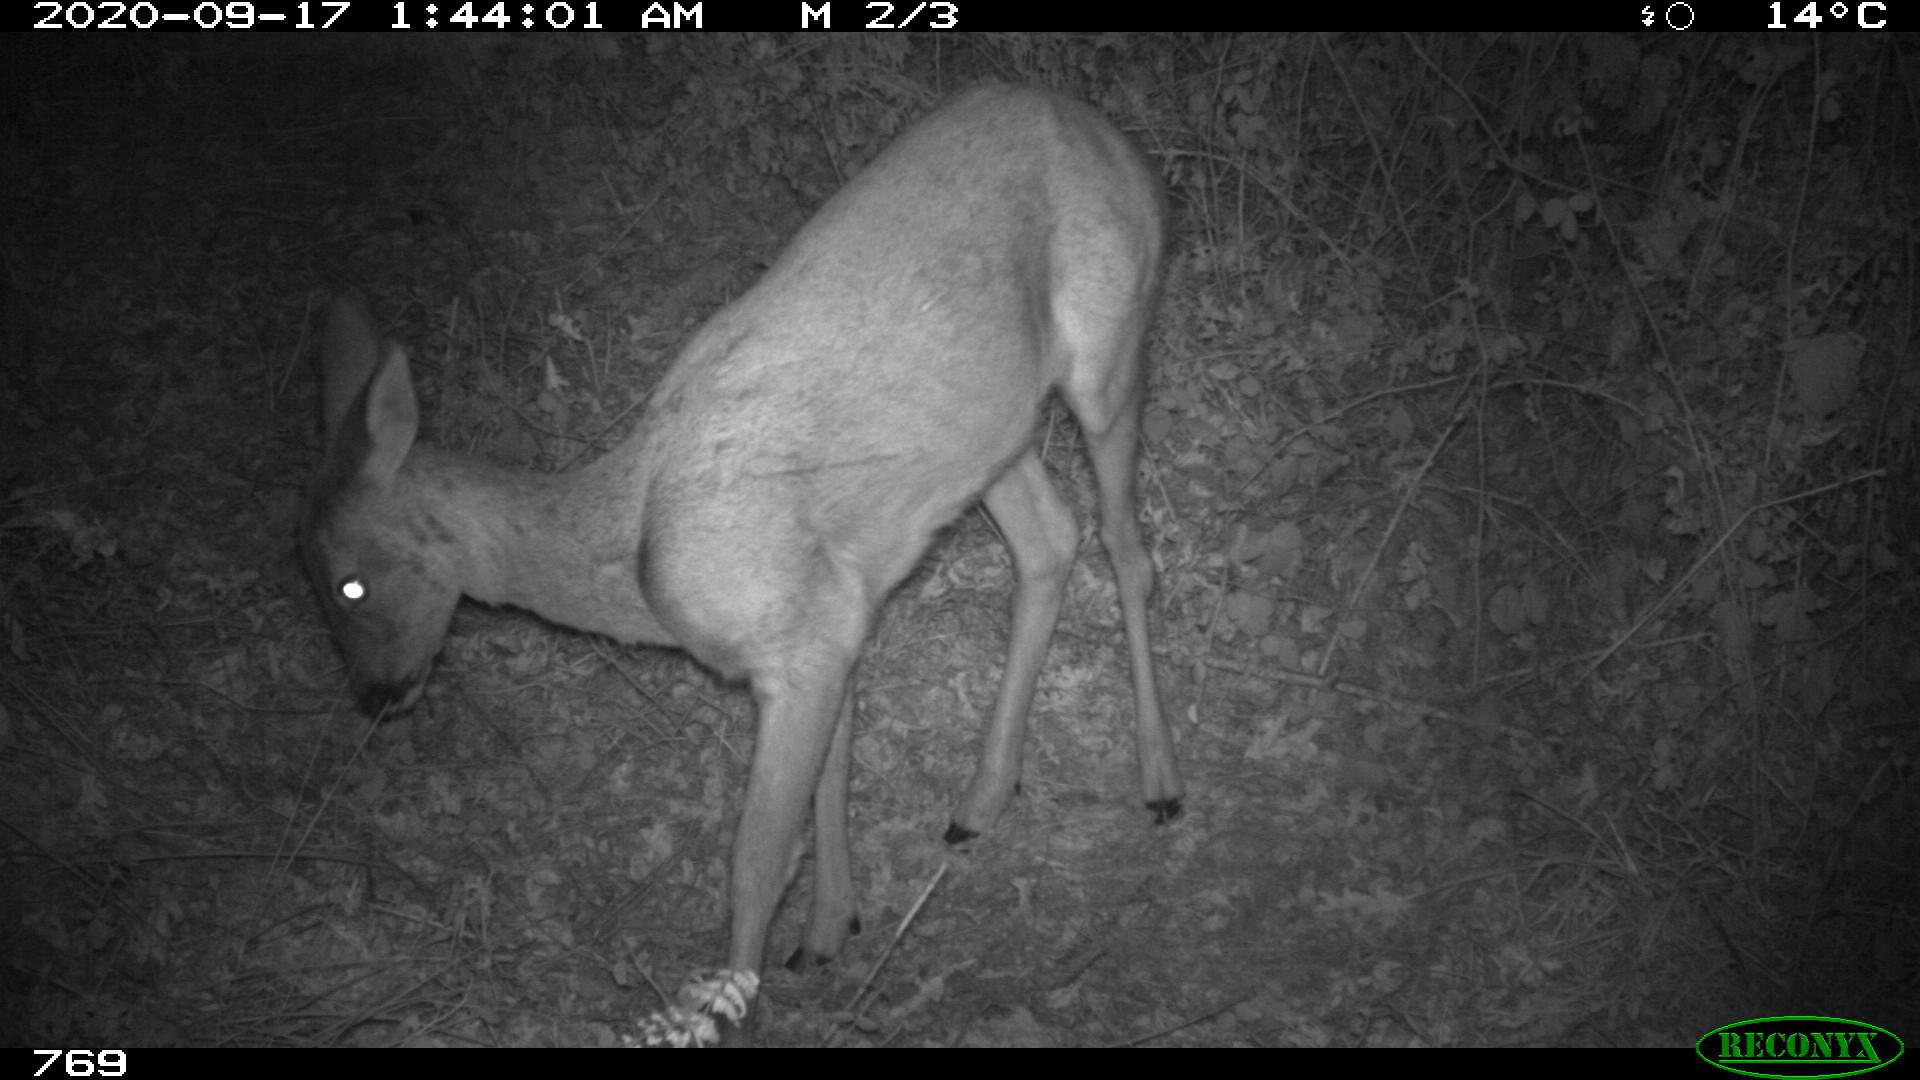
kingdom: Animalia
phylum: Chordata
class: Mammalia
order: Artiodactyla
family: Cervidae
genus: Capreolus
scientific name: Capreolus capreolus
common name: Western roe deer
